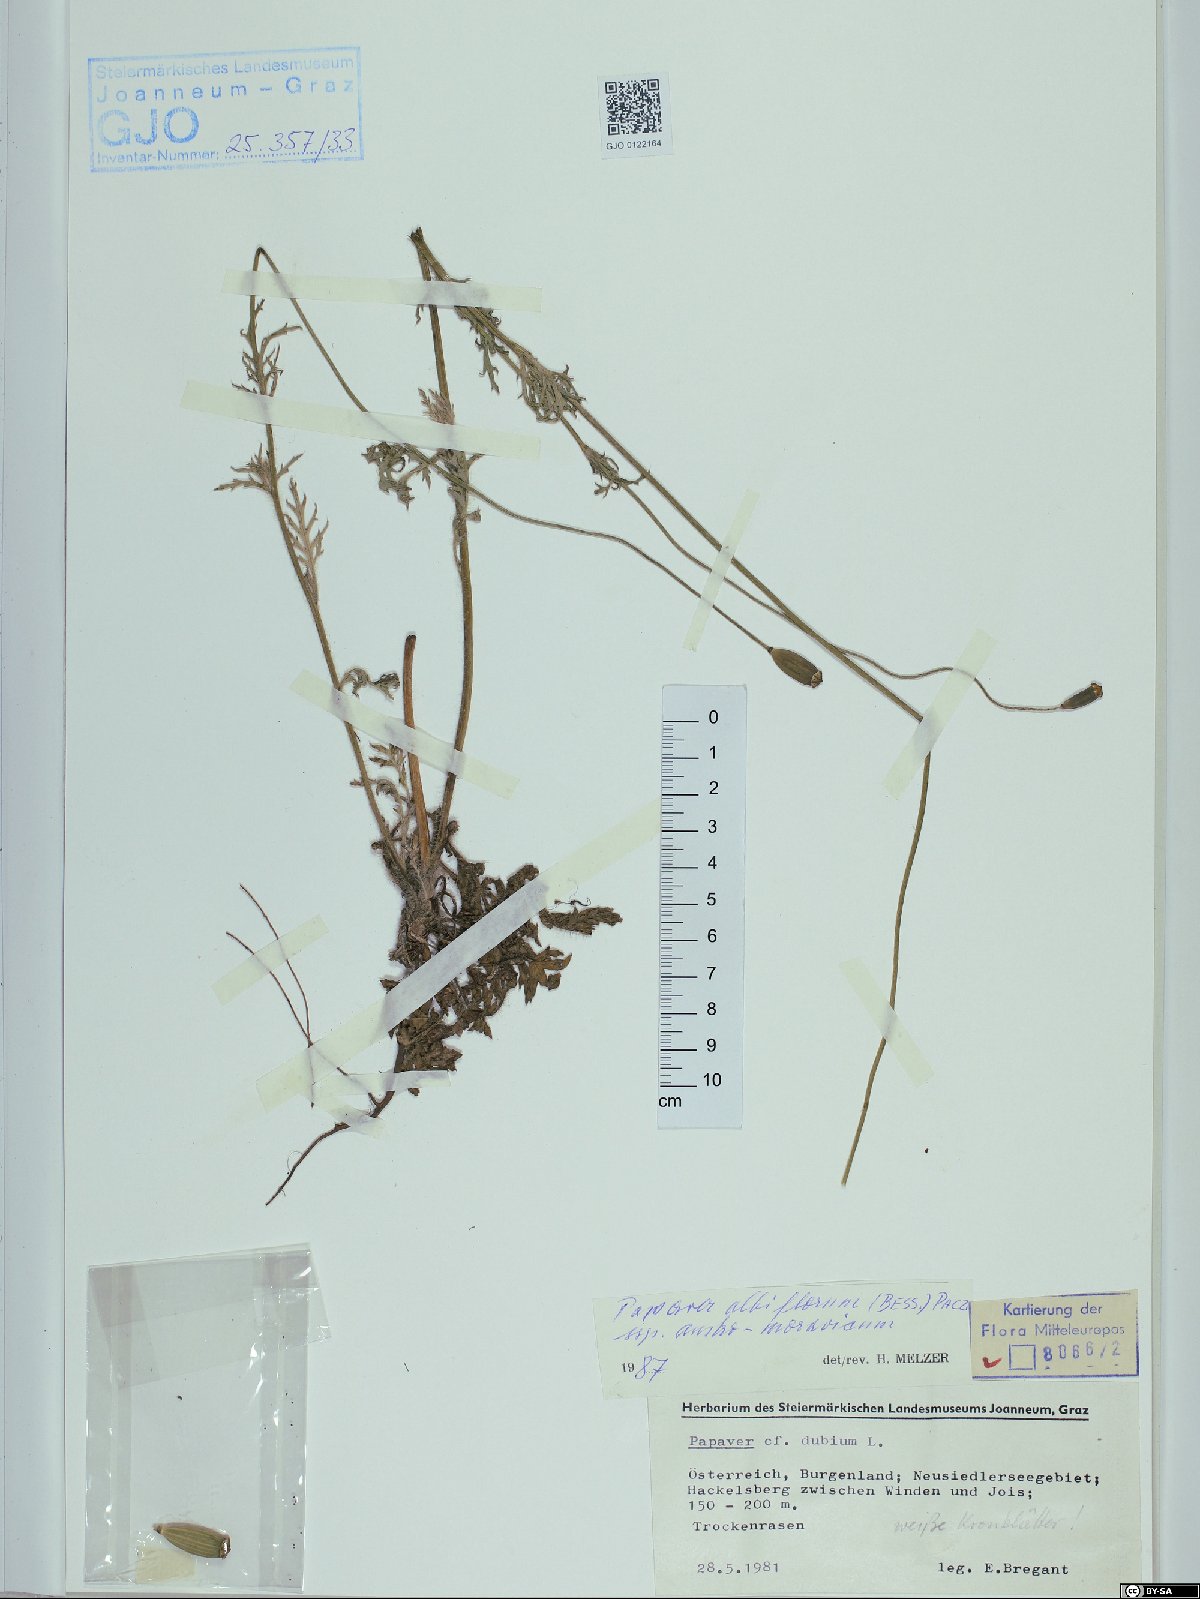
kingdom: Plantae
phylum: Tracheophyta
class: Magnoliopsida
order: Ranunculales
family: Papaveraceae
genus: Papaver
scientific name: Papaver dubium
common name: Long-headed poppy
